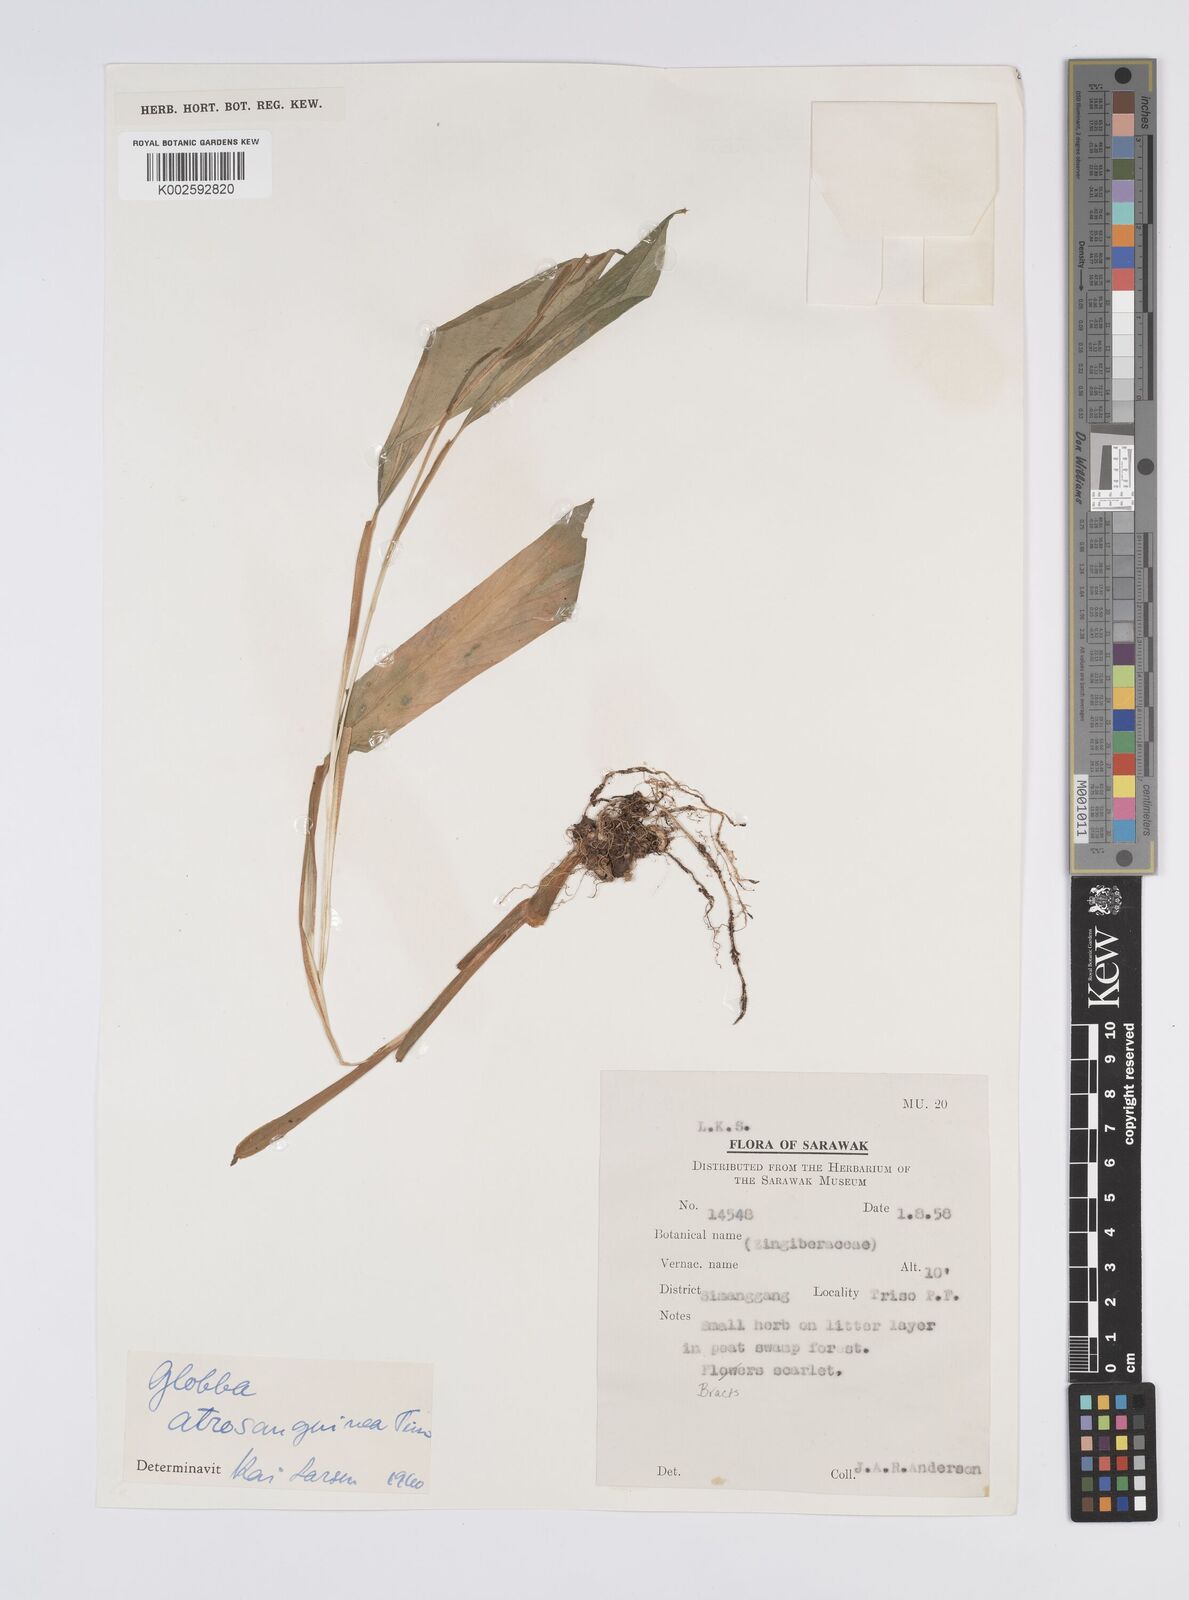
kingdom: Plantae
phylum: Tracheophyta
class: Liliopsida
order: Zingiberales
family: Zingiberaceae
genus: Globba
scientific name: Globba atrosanguinea
